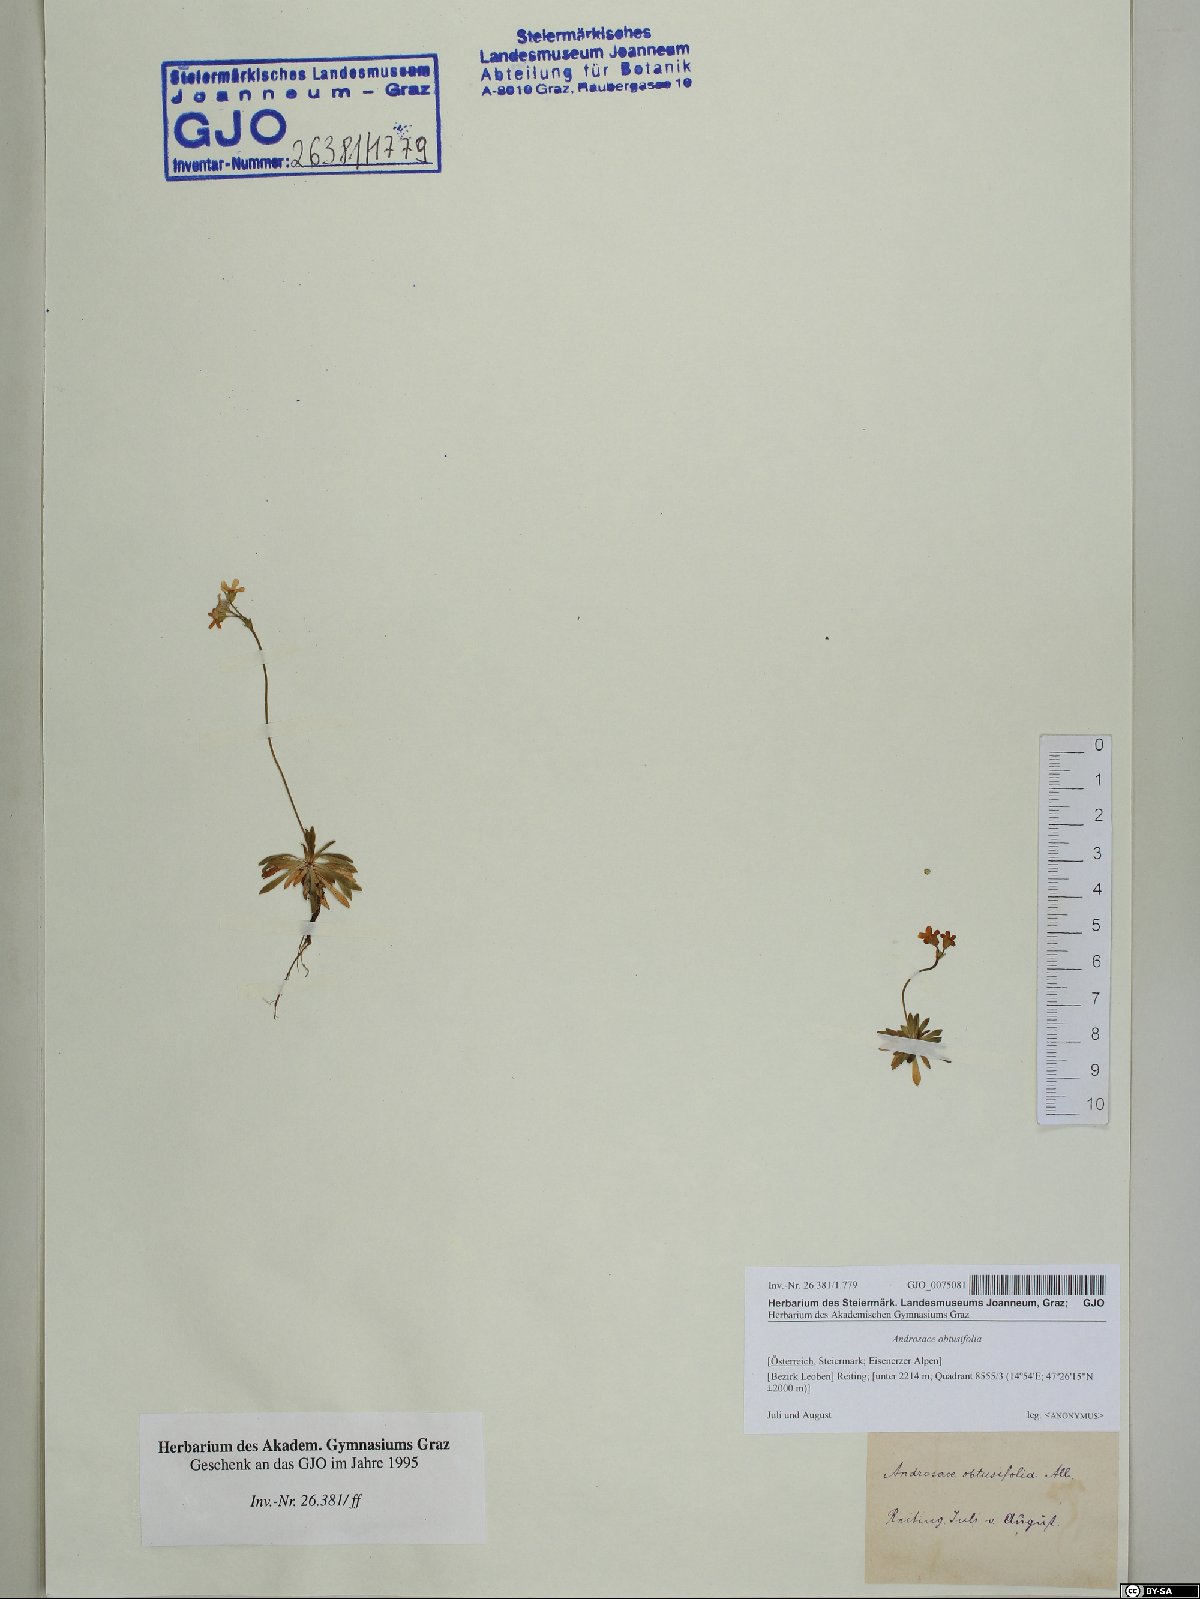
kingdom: Plantae
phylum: Tracheophyta
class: Magnoliopsida
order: Ericales
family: Primulaceae
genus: Androsace
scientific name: Androsace obtusifolia
